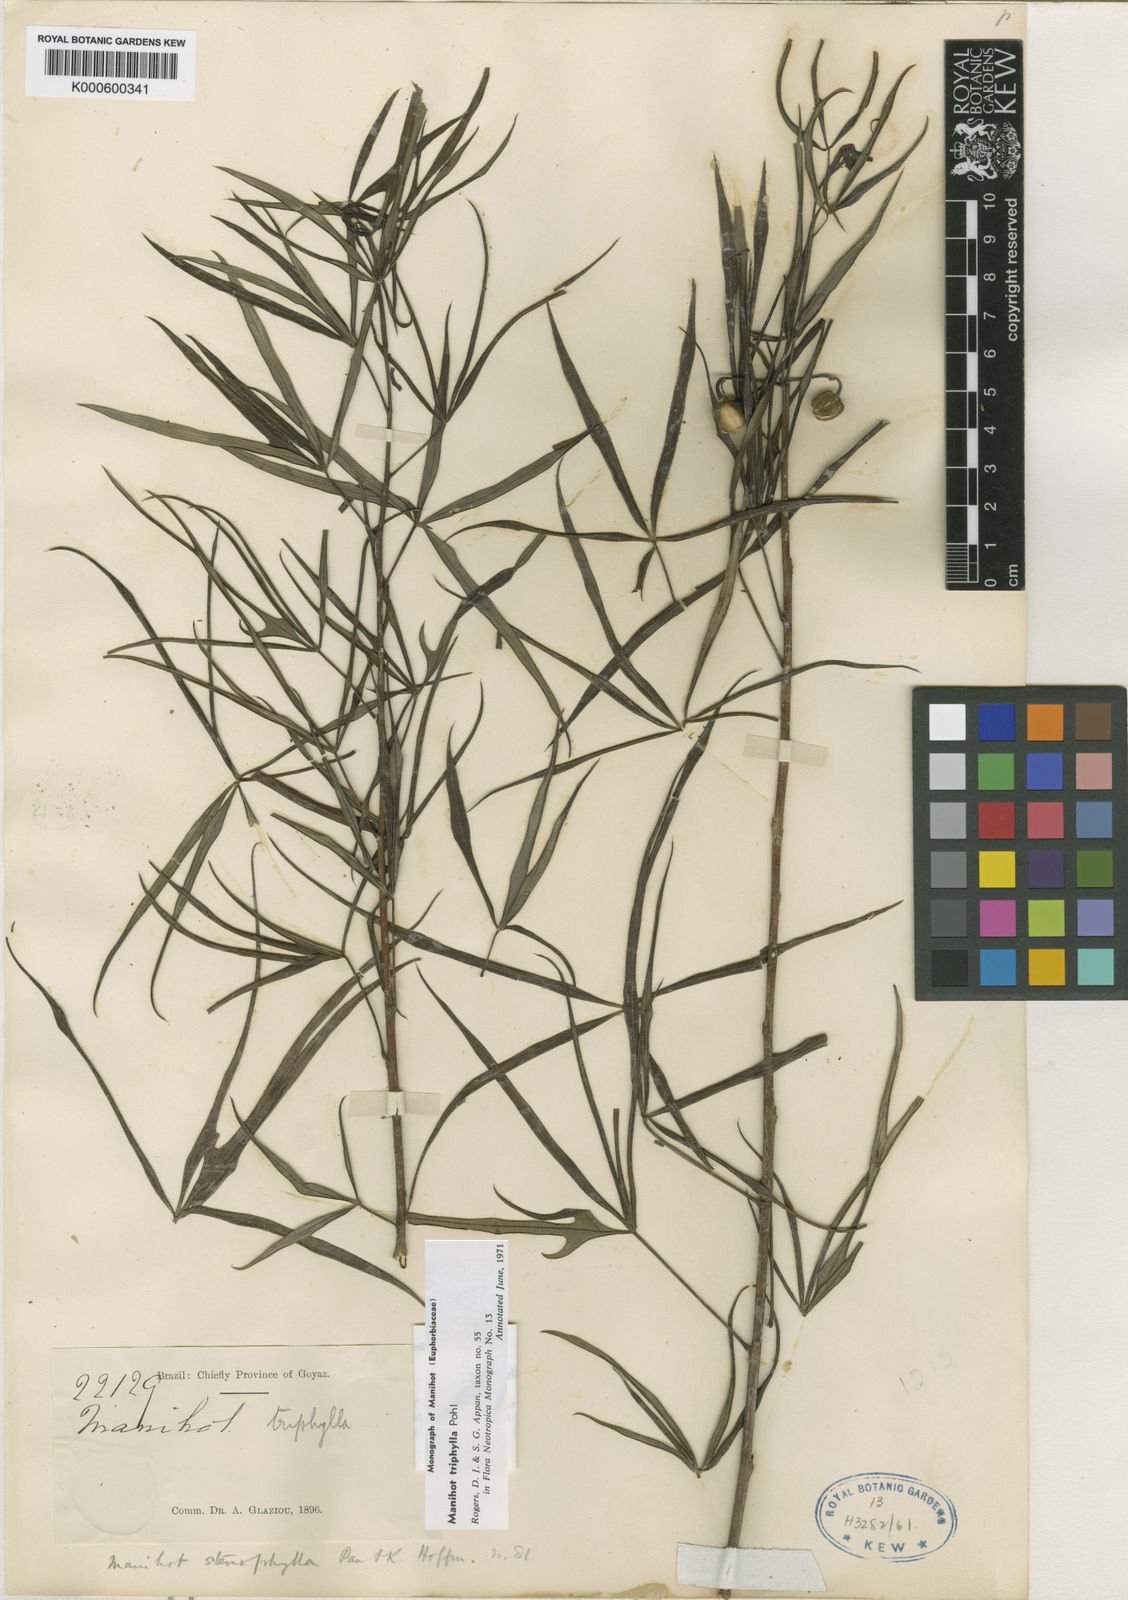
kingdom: Plantae
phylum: Tracheophyta
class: Magnoliopsida
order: Malpighiales
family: Euphorbiaceae
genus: Manihot
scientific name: Manihot triphylla
